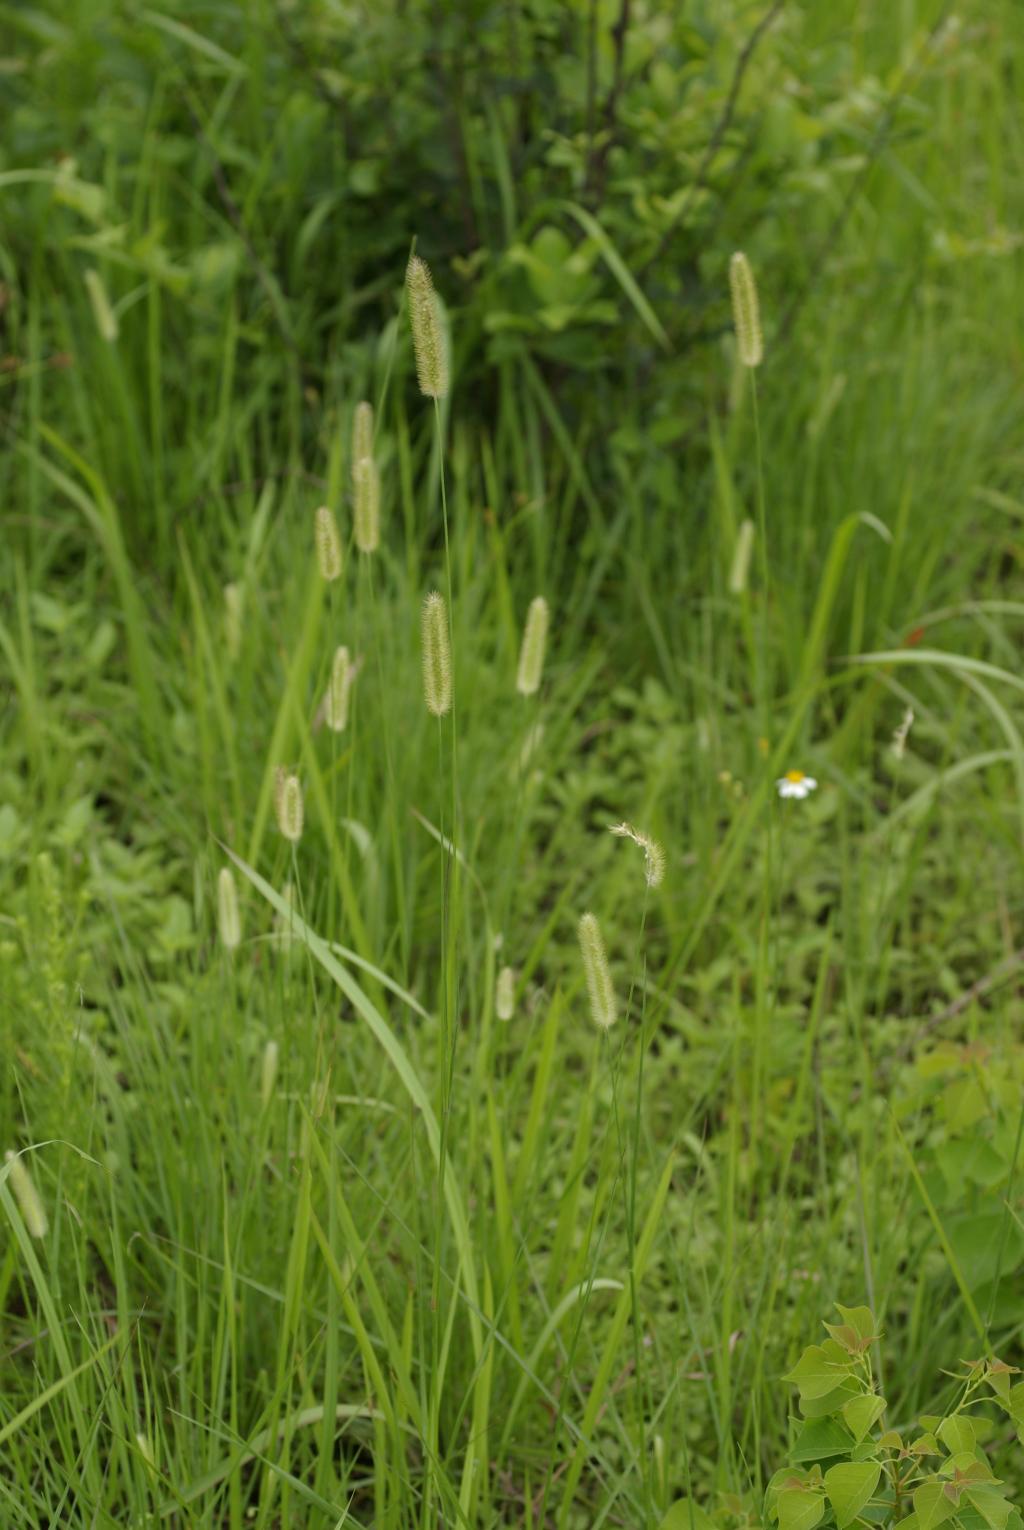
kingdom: Plantae
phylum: Tracheophyta
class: Liliopsida
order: Poales
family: Poaceae
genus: Setaria
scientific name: Setaria parviflora
